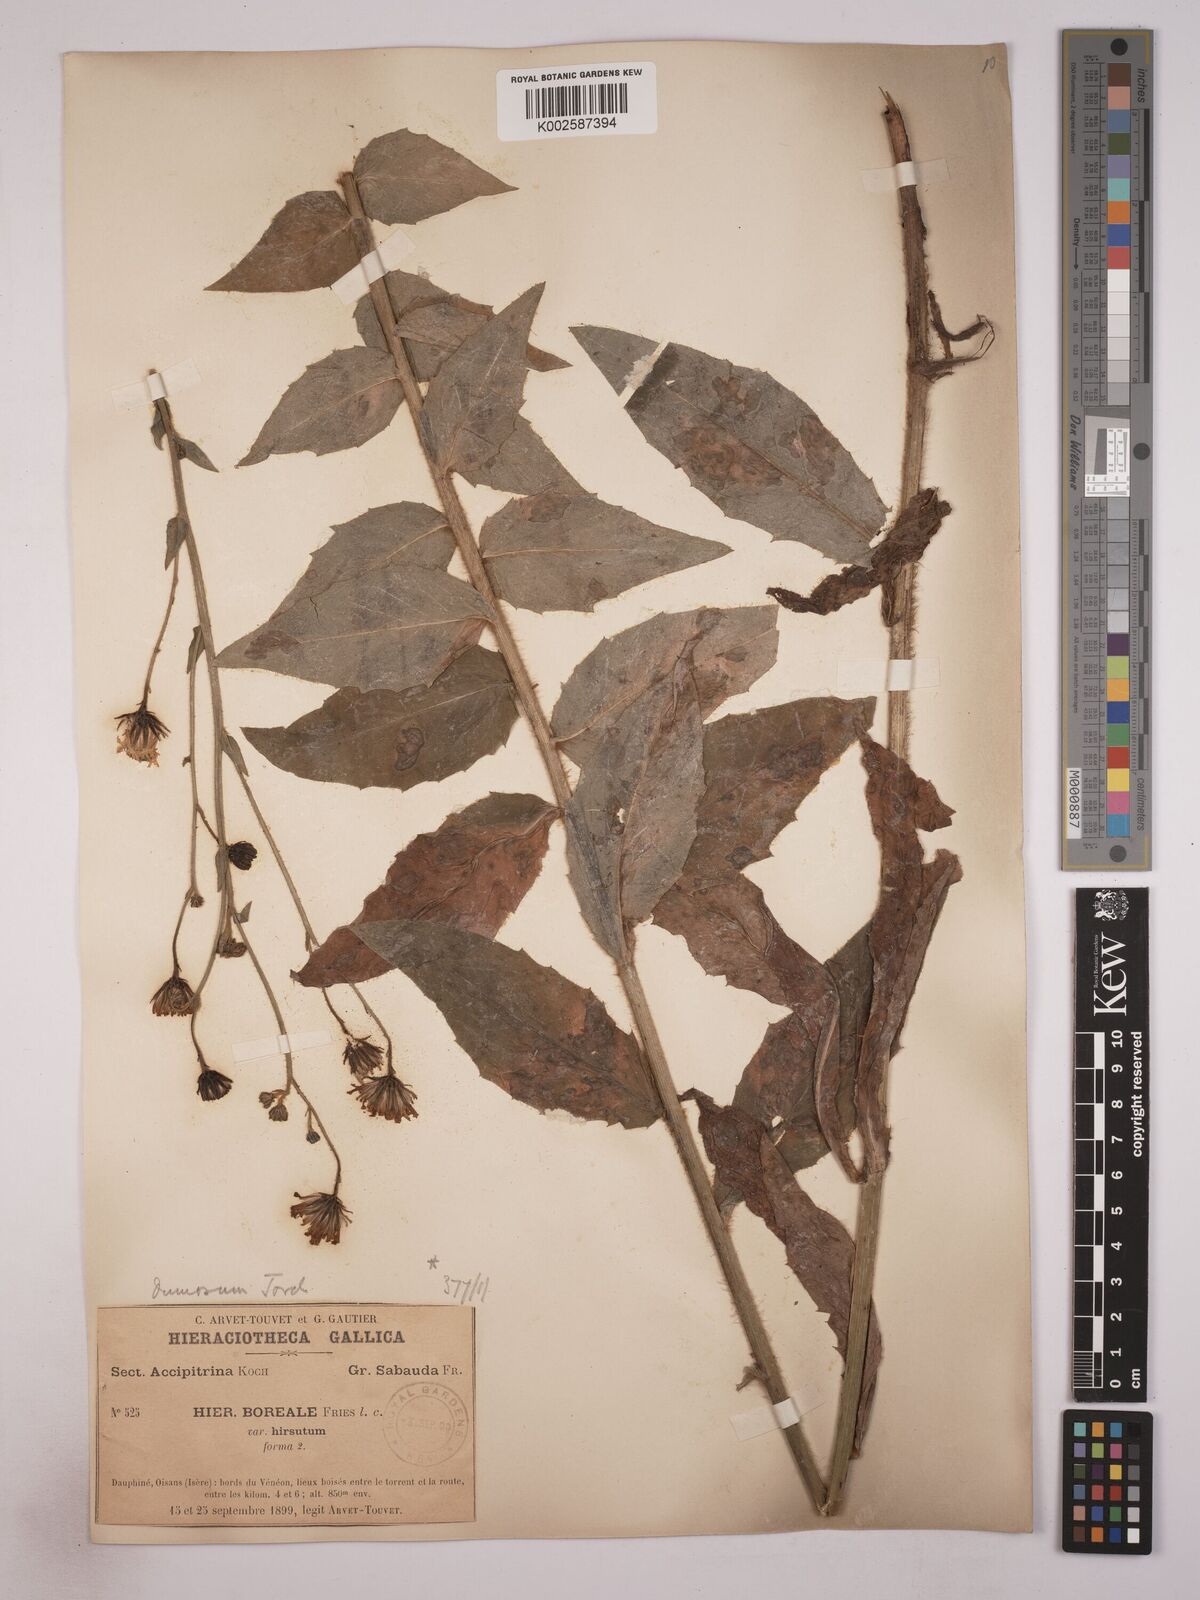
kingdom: Plantae
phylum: Tracheophyta
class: Magnoliopsida
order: Asterales
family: Asteraceae
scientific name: Asteraceae
